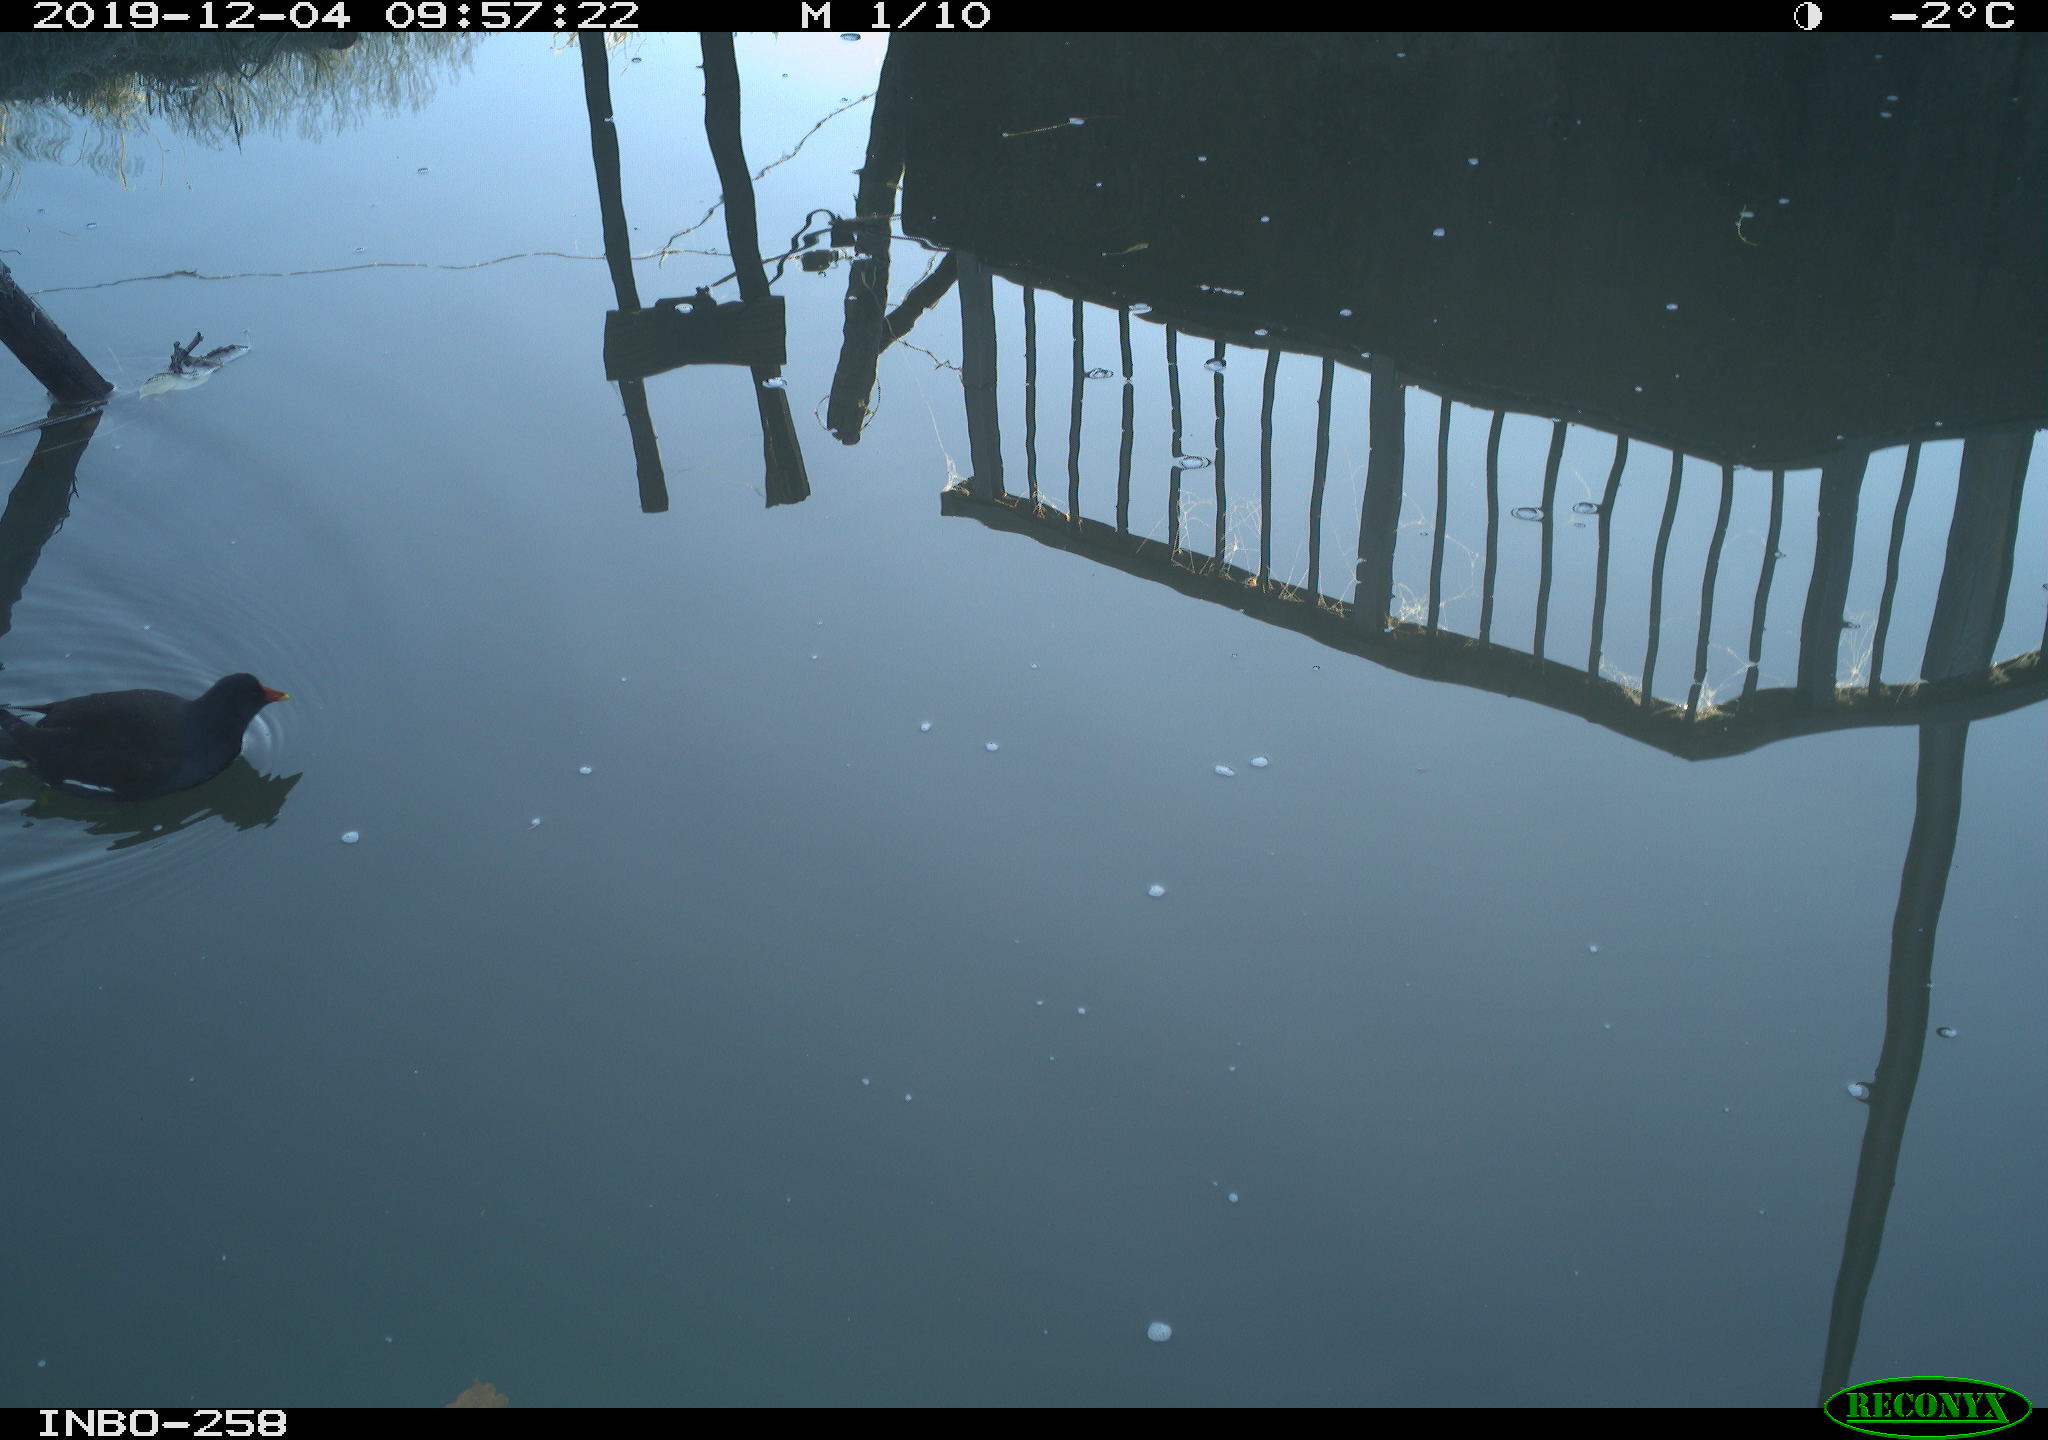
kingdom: Animalia
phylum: Chordata
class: Aves
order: Gruiformes
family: Rallidae
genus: Gallinula
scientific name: Gallinula chloropus
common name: Common moorhen
